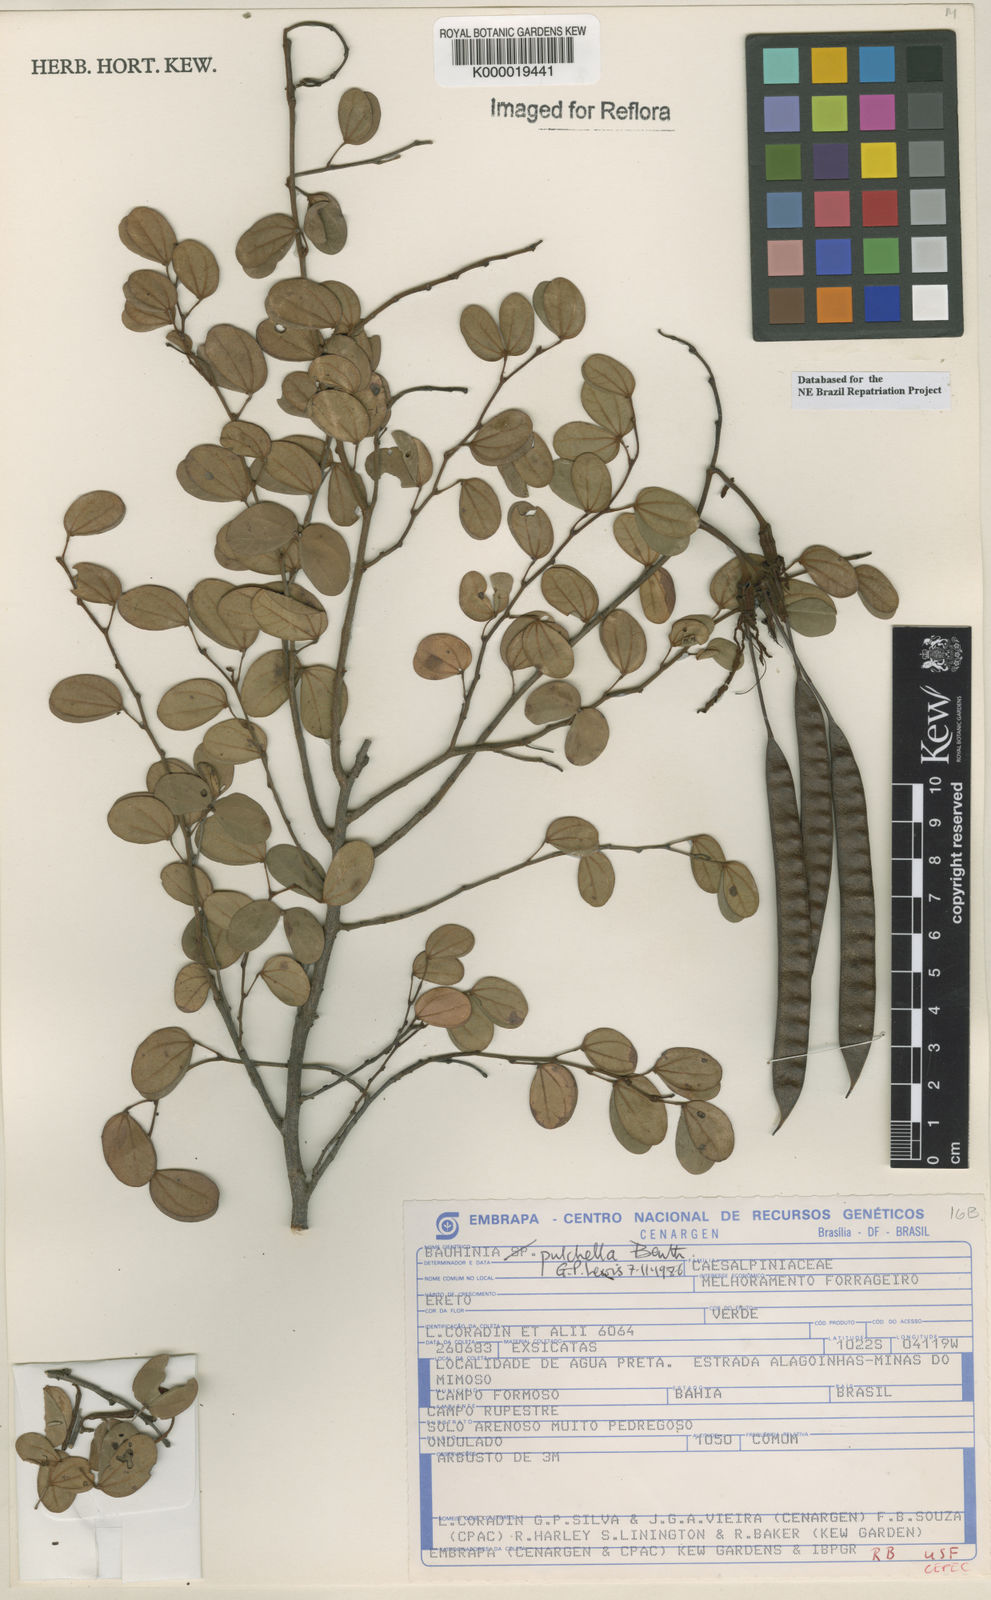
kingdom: Plantae
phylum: Tracheophyta
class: Magnoliopsida
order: Fabales
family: Fabaceae
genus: Bauhinia
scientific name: Bauhinia pulchella
